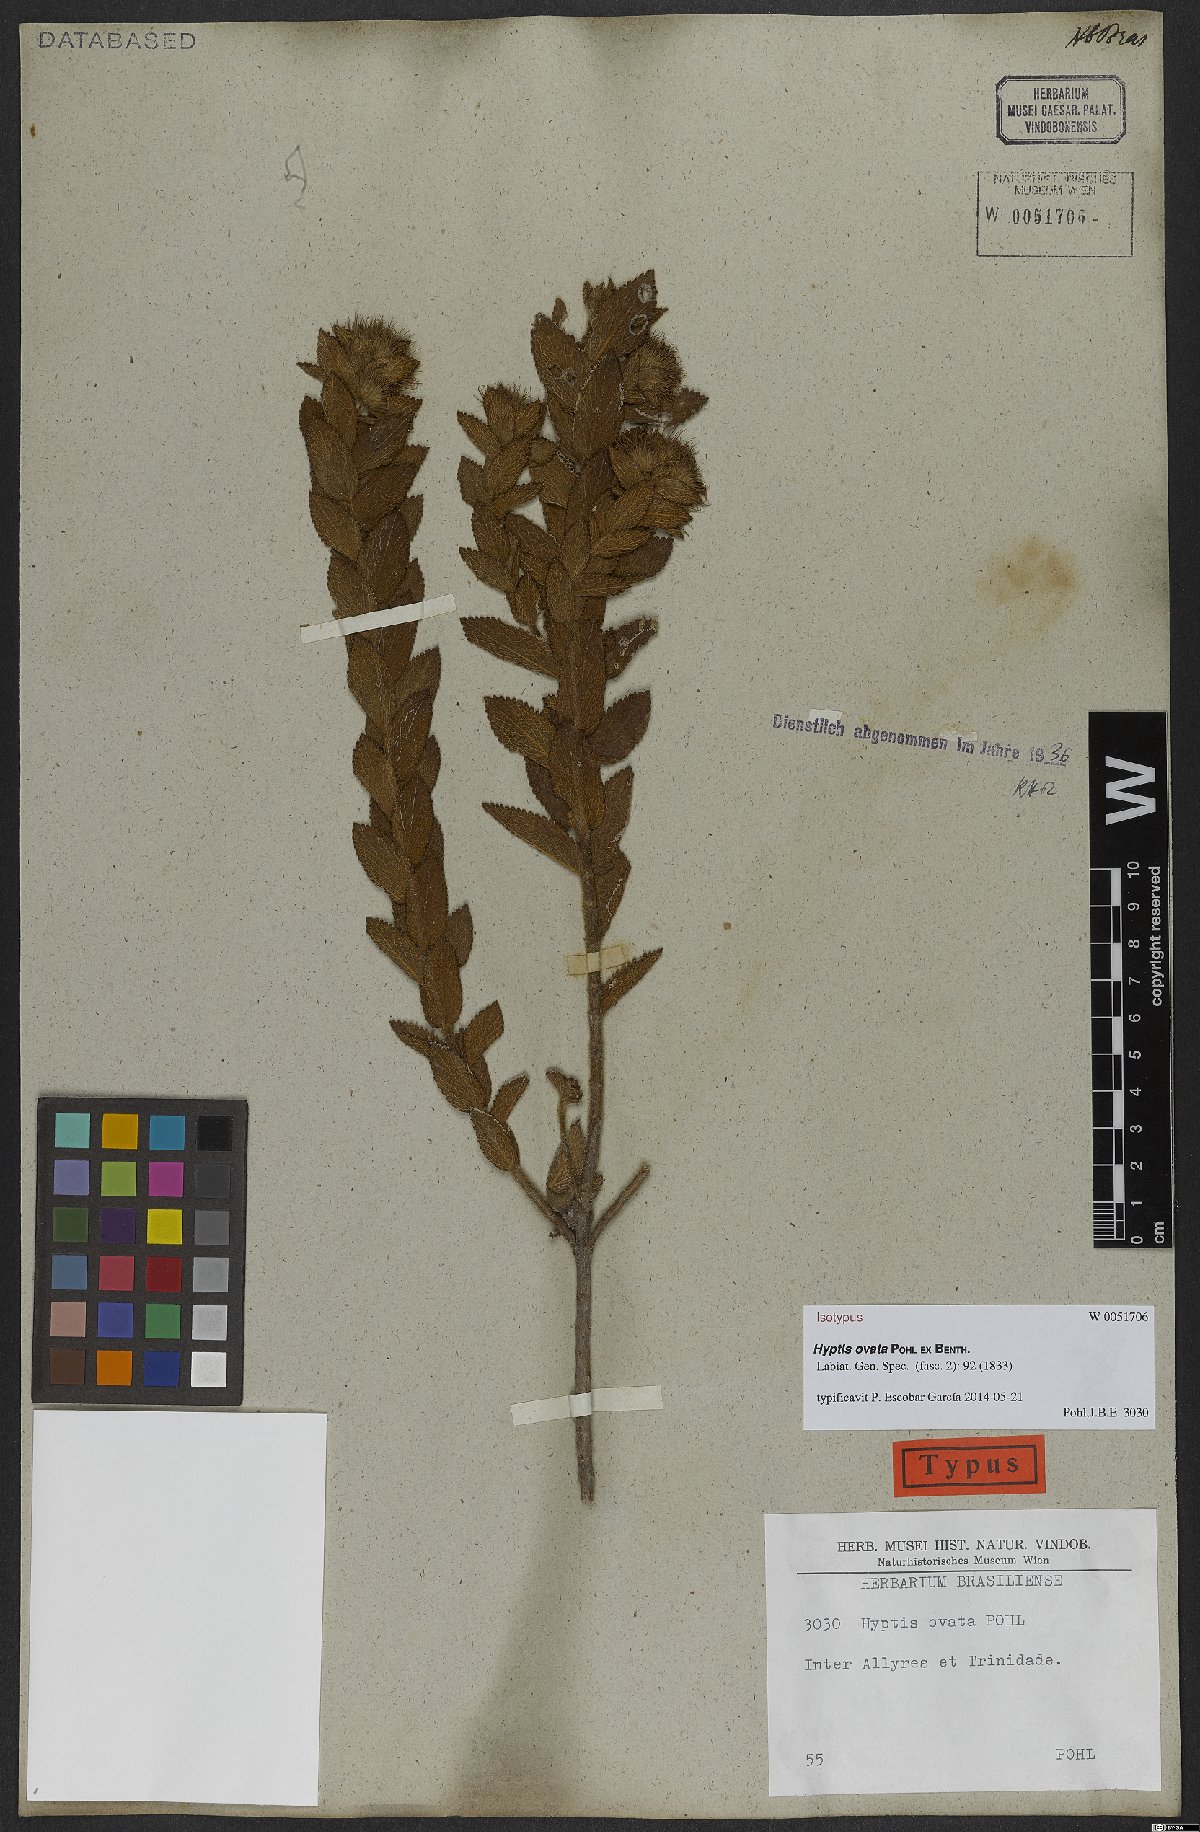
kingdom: Plantae
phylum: Tracheophyta
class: Magnoliopsida
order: Lamiales
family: Lamiaceae
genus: Hyptis
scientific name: Hyptis ovata
